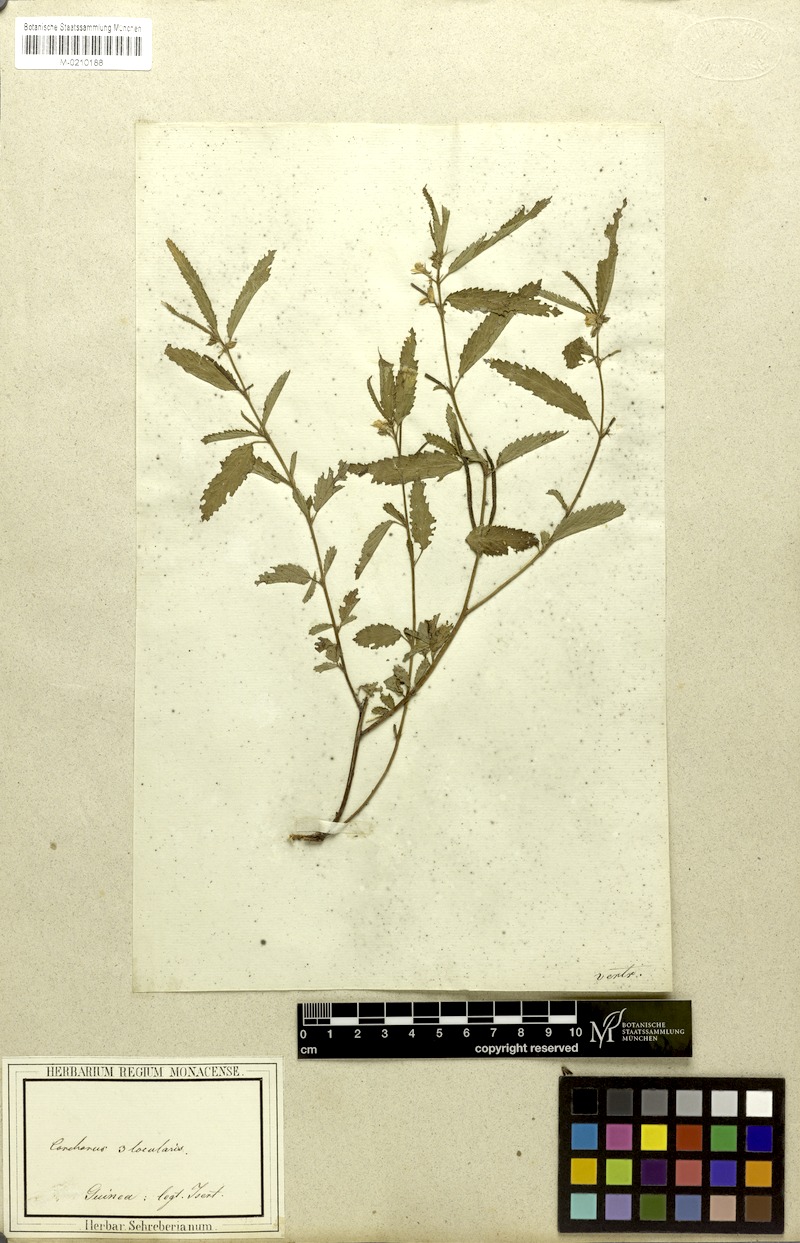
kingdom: Plantae
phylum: Tracheophyta
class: Magnoliopsida
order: Malvales
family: Malvaceae
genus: Corchorus
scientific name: Corchorus trilocularis
